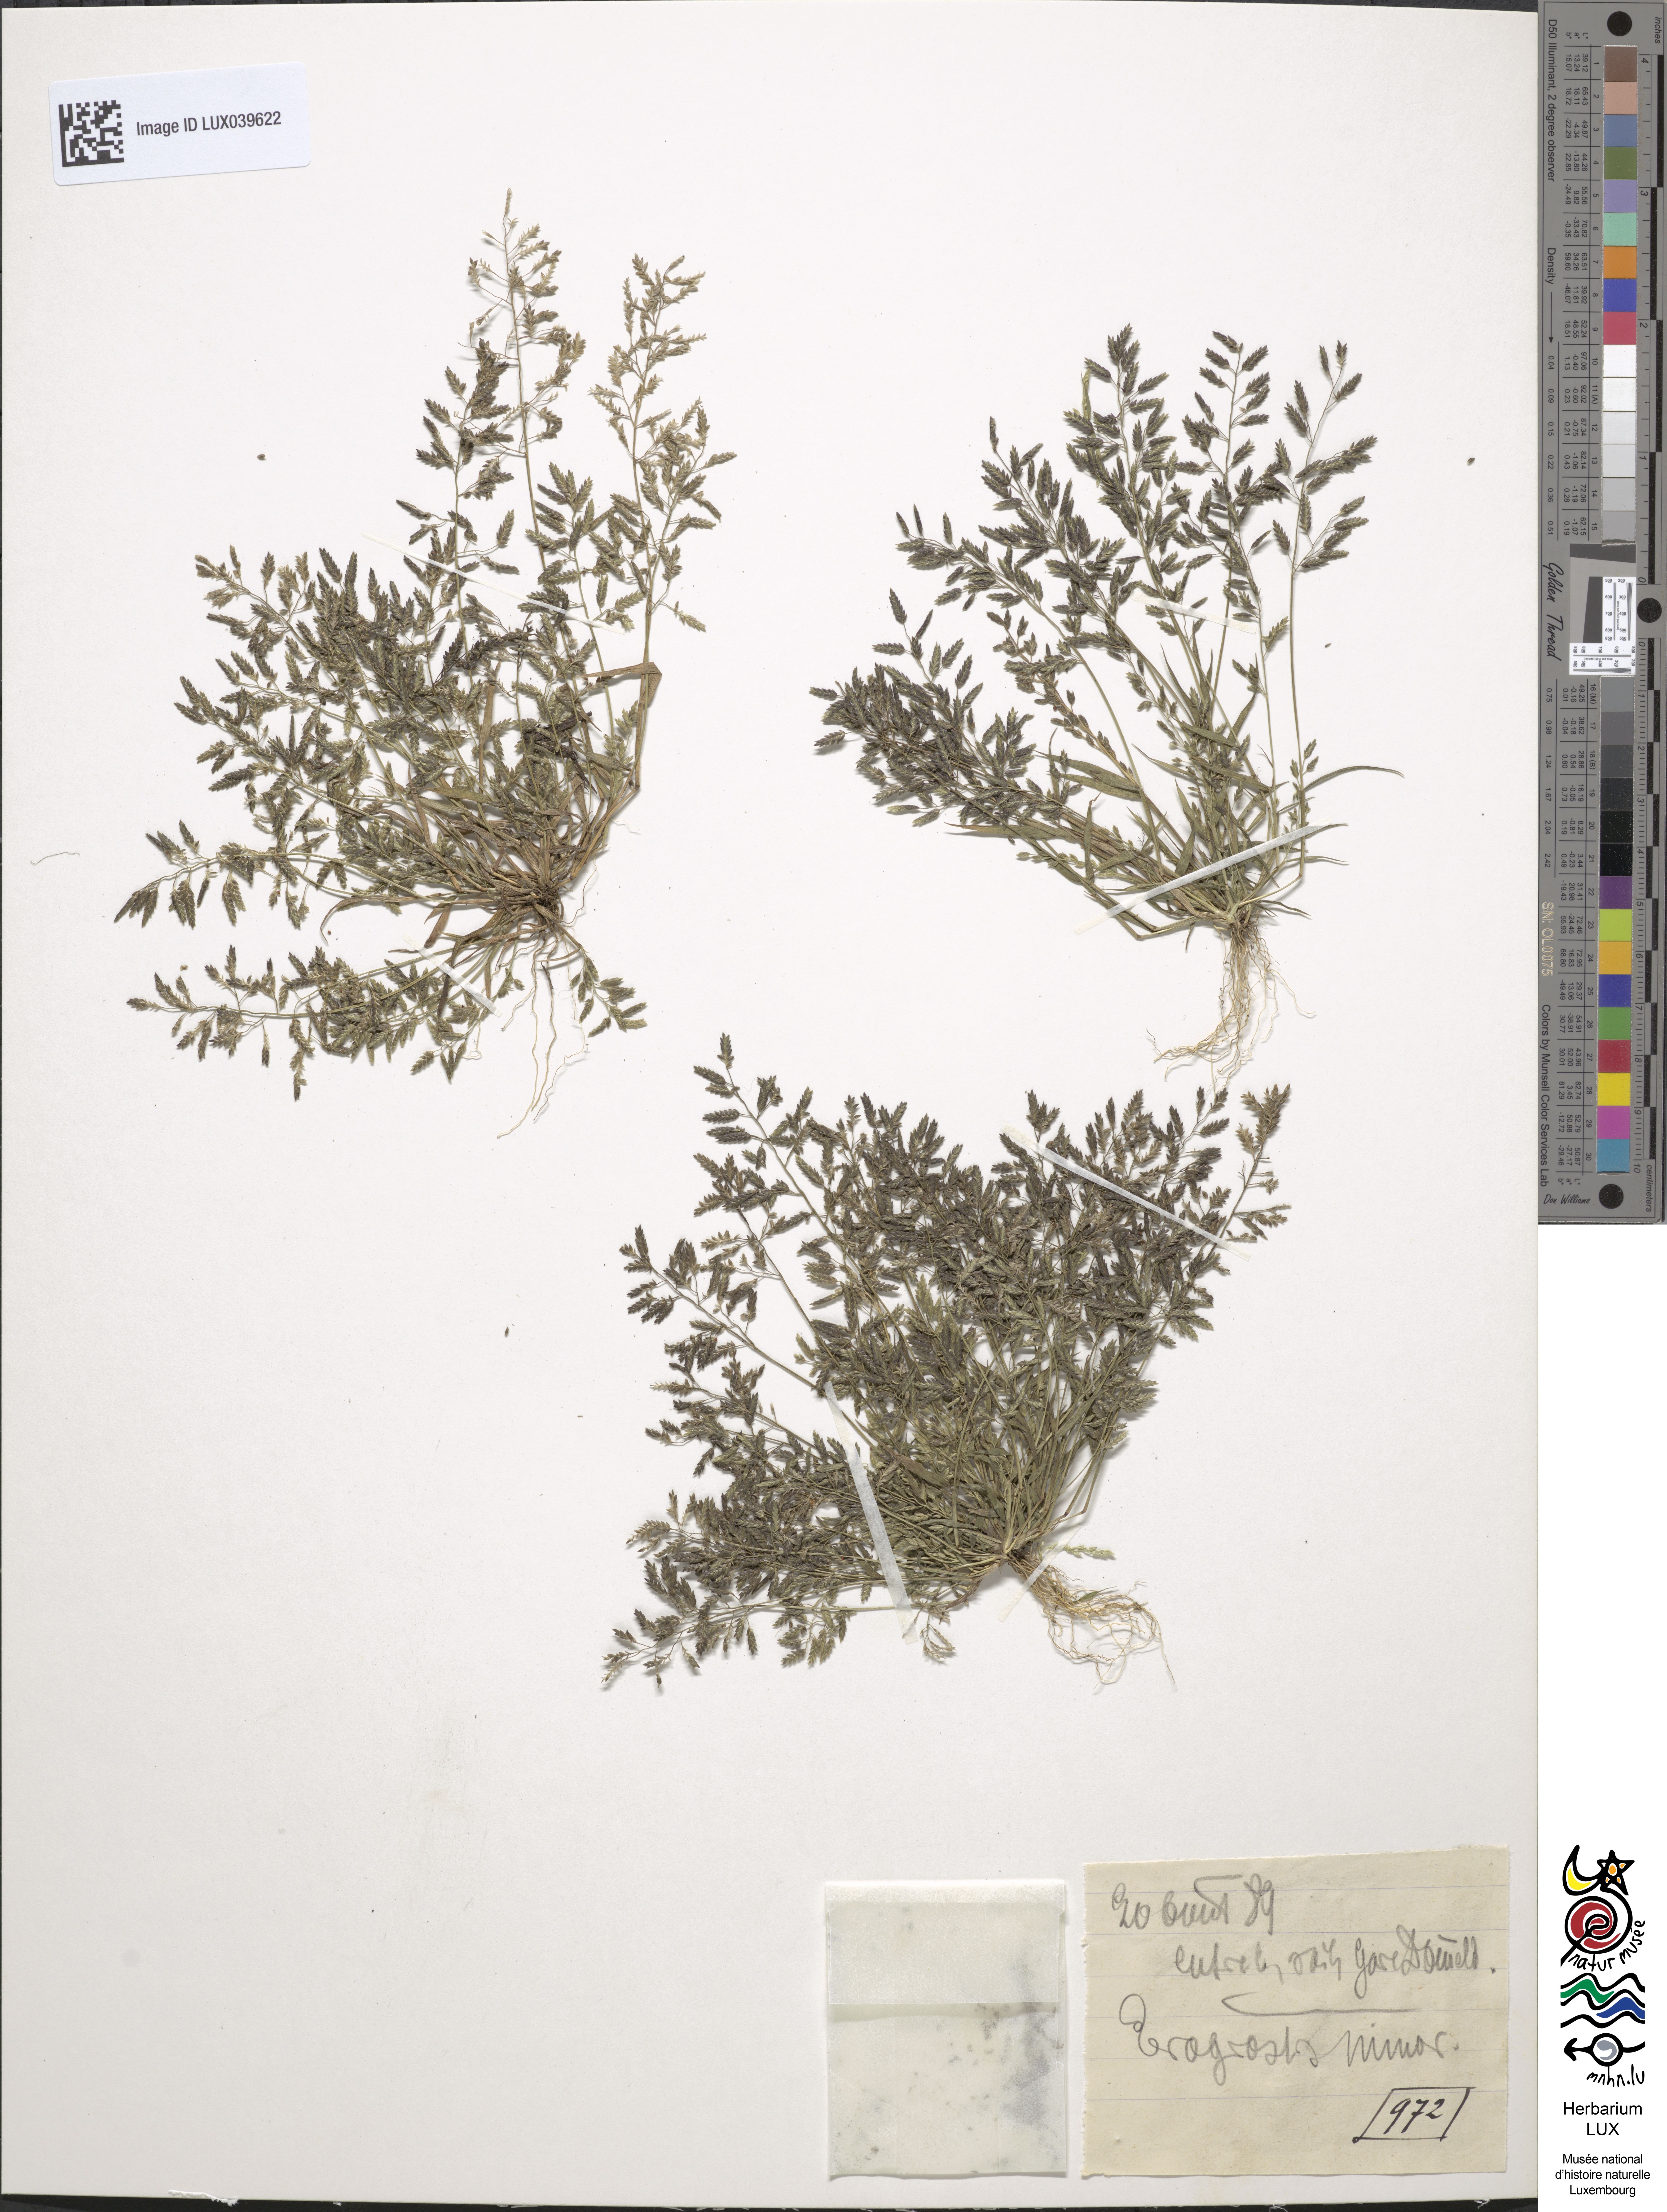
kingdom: Plantae
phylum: Tracheophyta
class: Liliopsida
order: Poales
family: Poaceae
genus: Eragrostis
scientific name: Eragrostis minor
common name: Small love-grass
